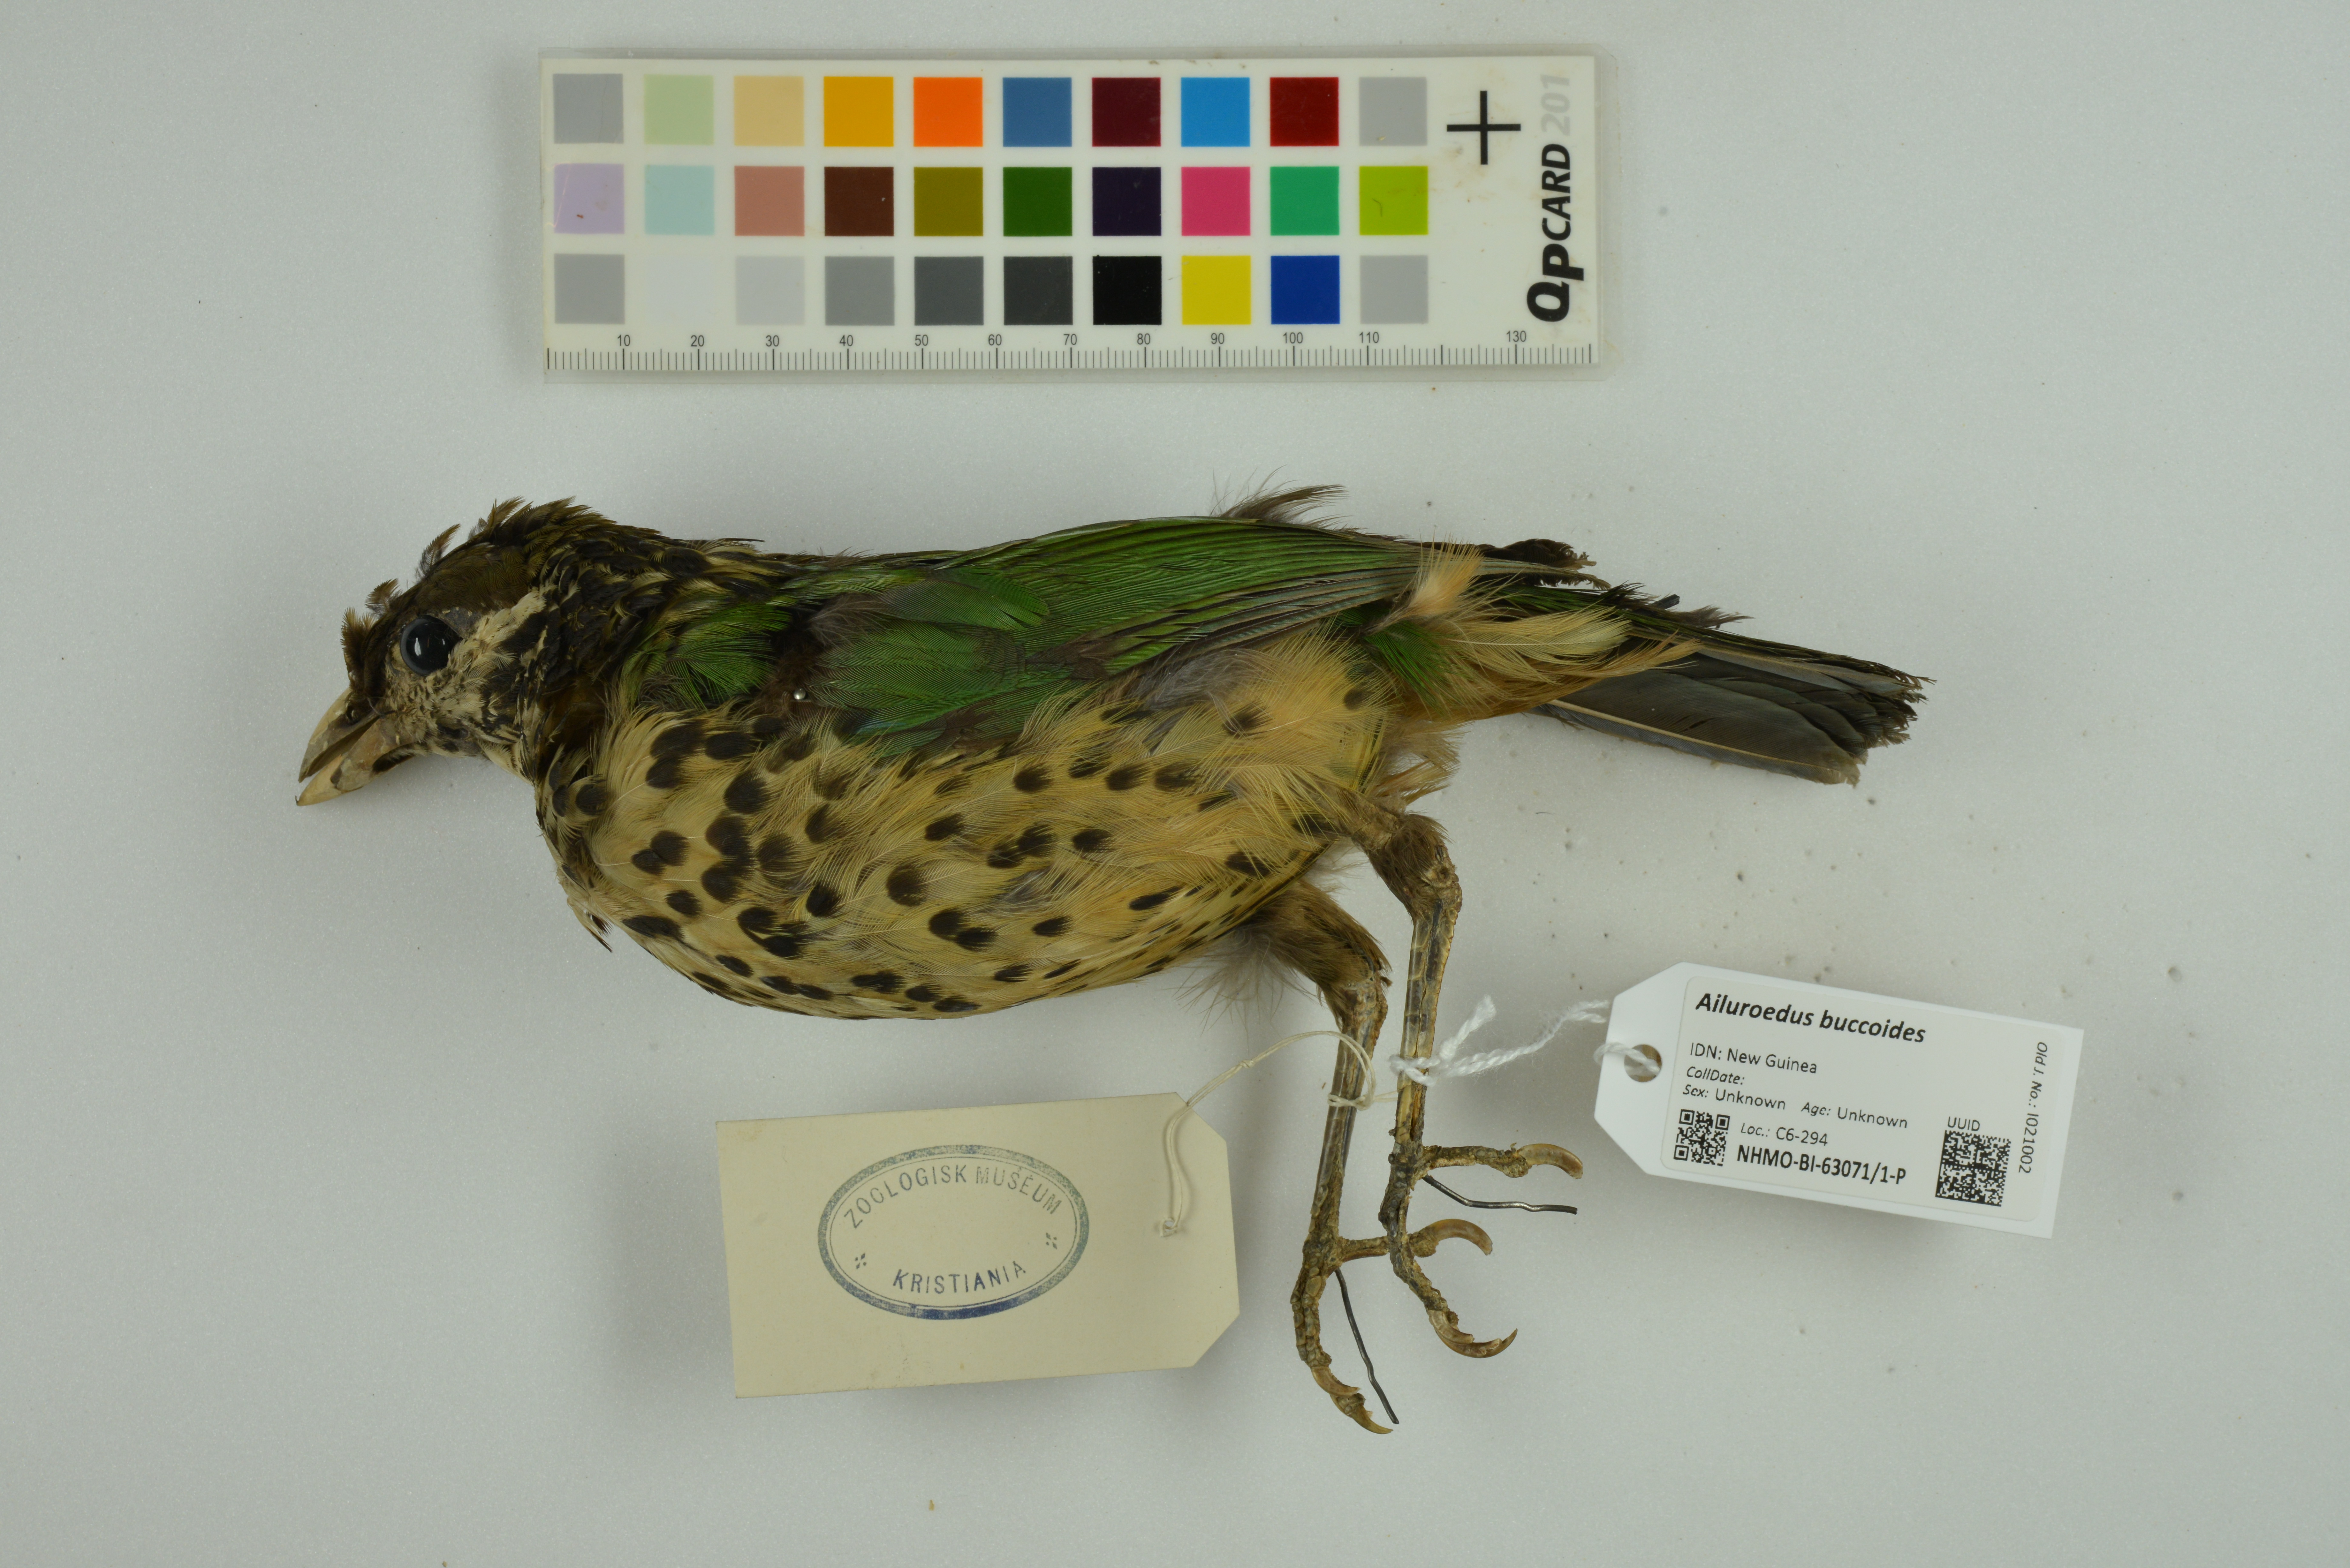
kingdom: Animalia
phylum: Chordata
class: Aves
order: Passeriformes
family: Ptilonorhynchidae
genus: Ailuroedus
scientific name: Ailuroedus buccoides
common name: White-eared catbird
